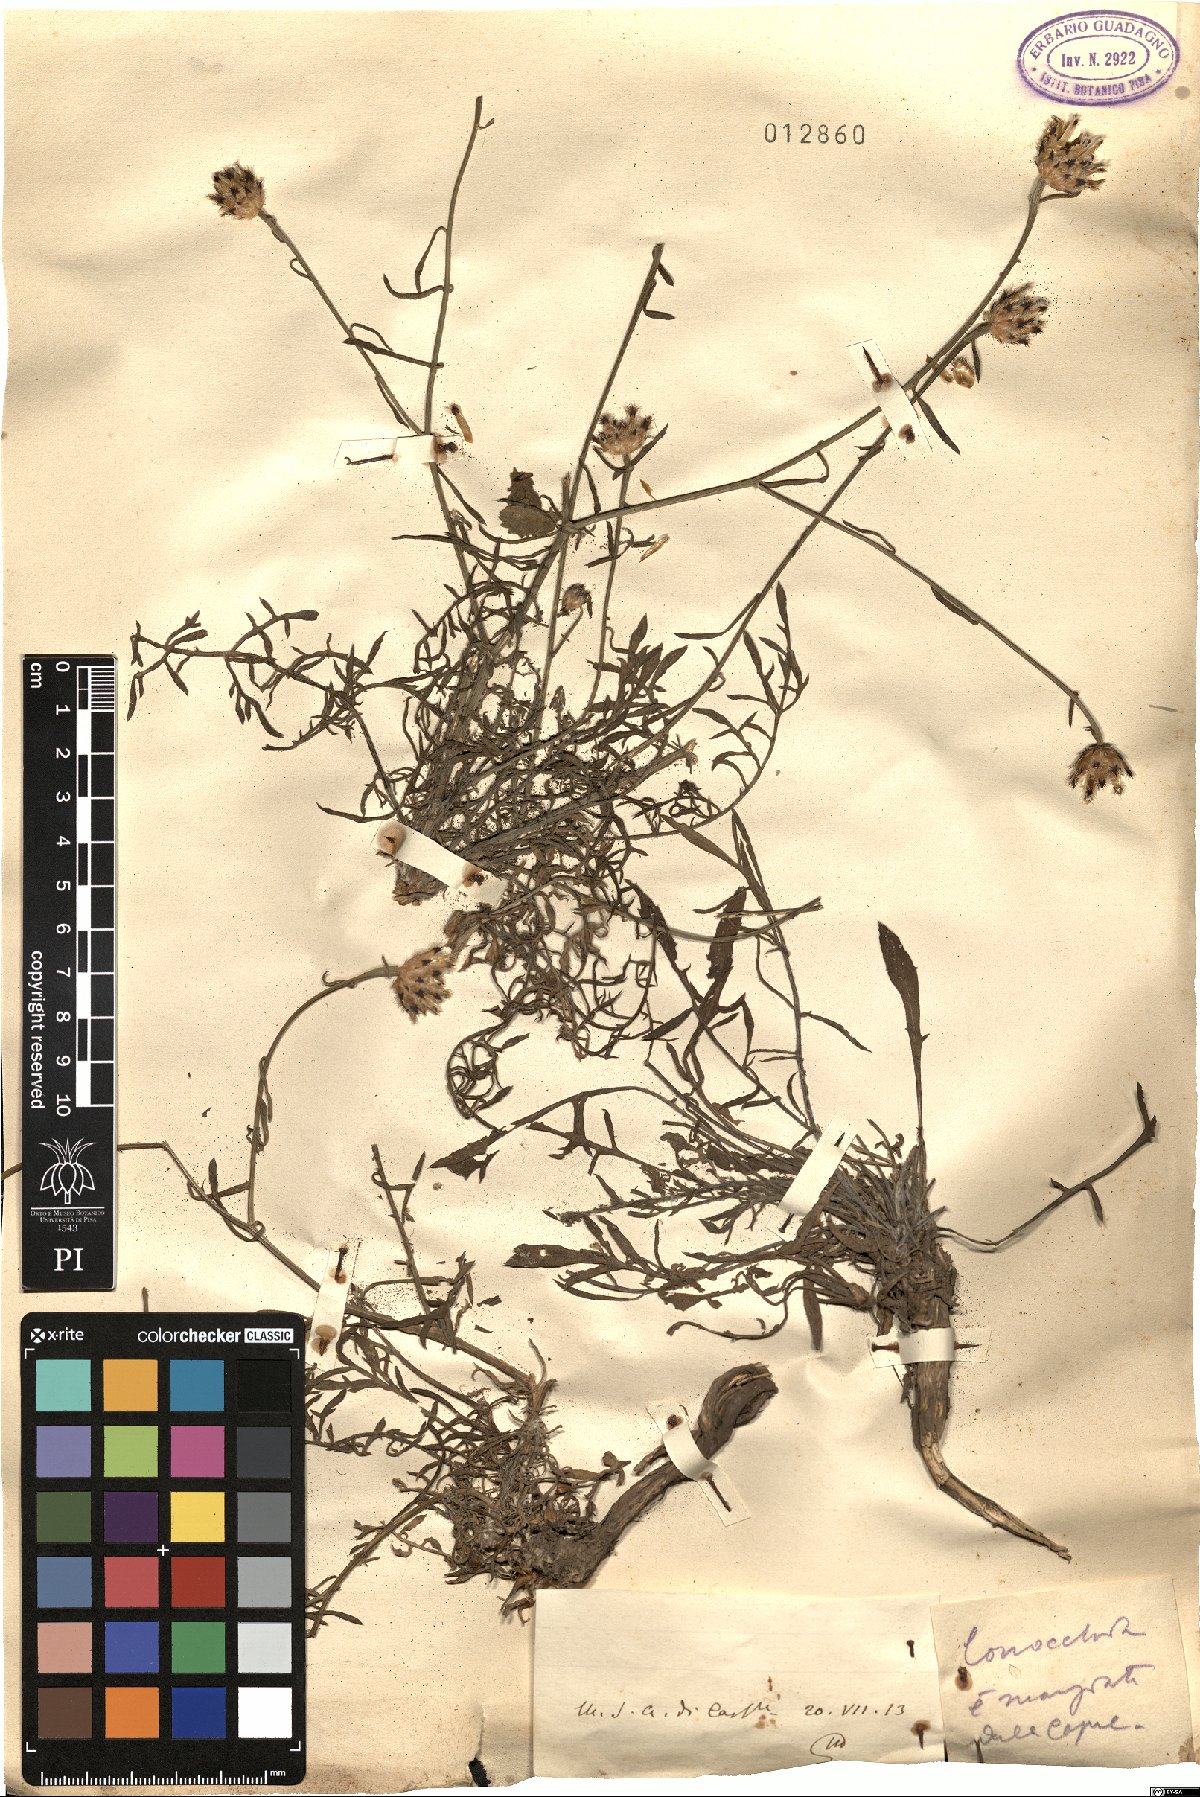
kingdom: Plantae
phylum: Tracheophyta
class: Magnoliopsida
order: Asterales
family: Asteraceae
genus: Centaurea
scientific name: Centaurea
